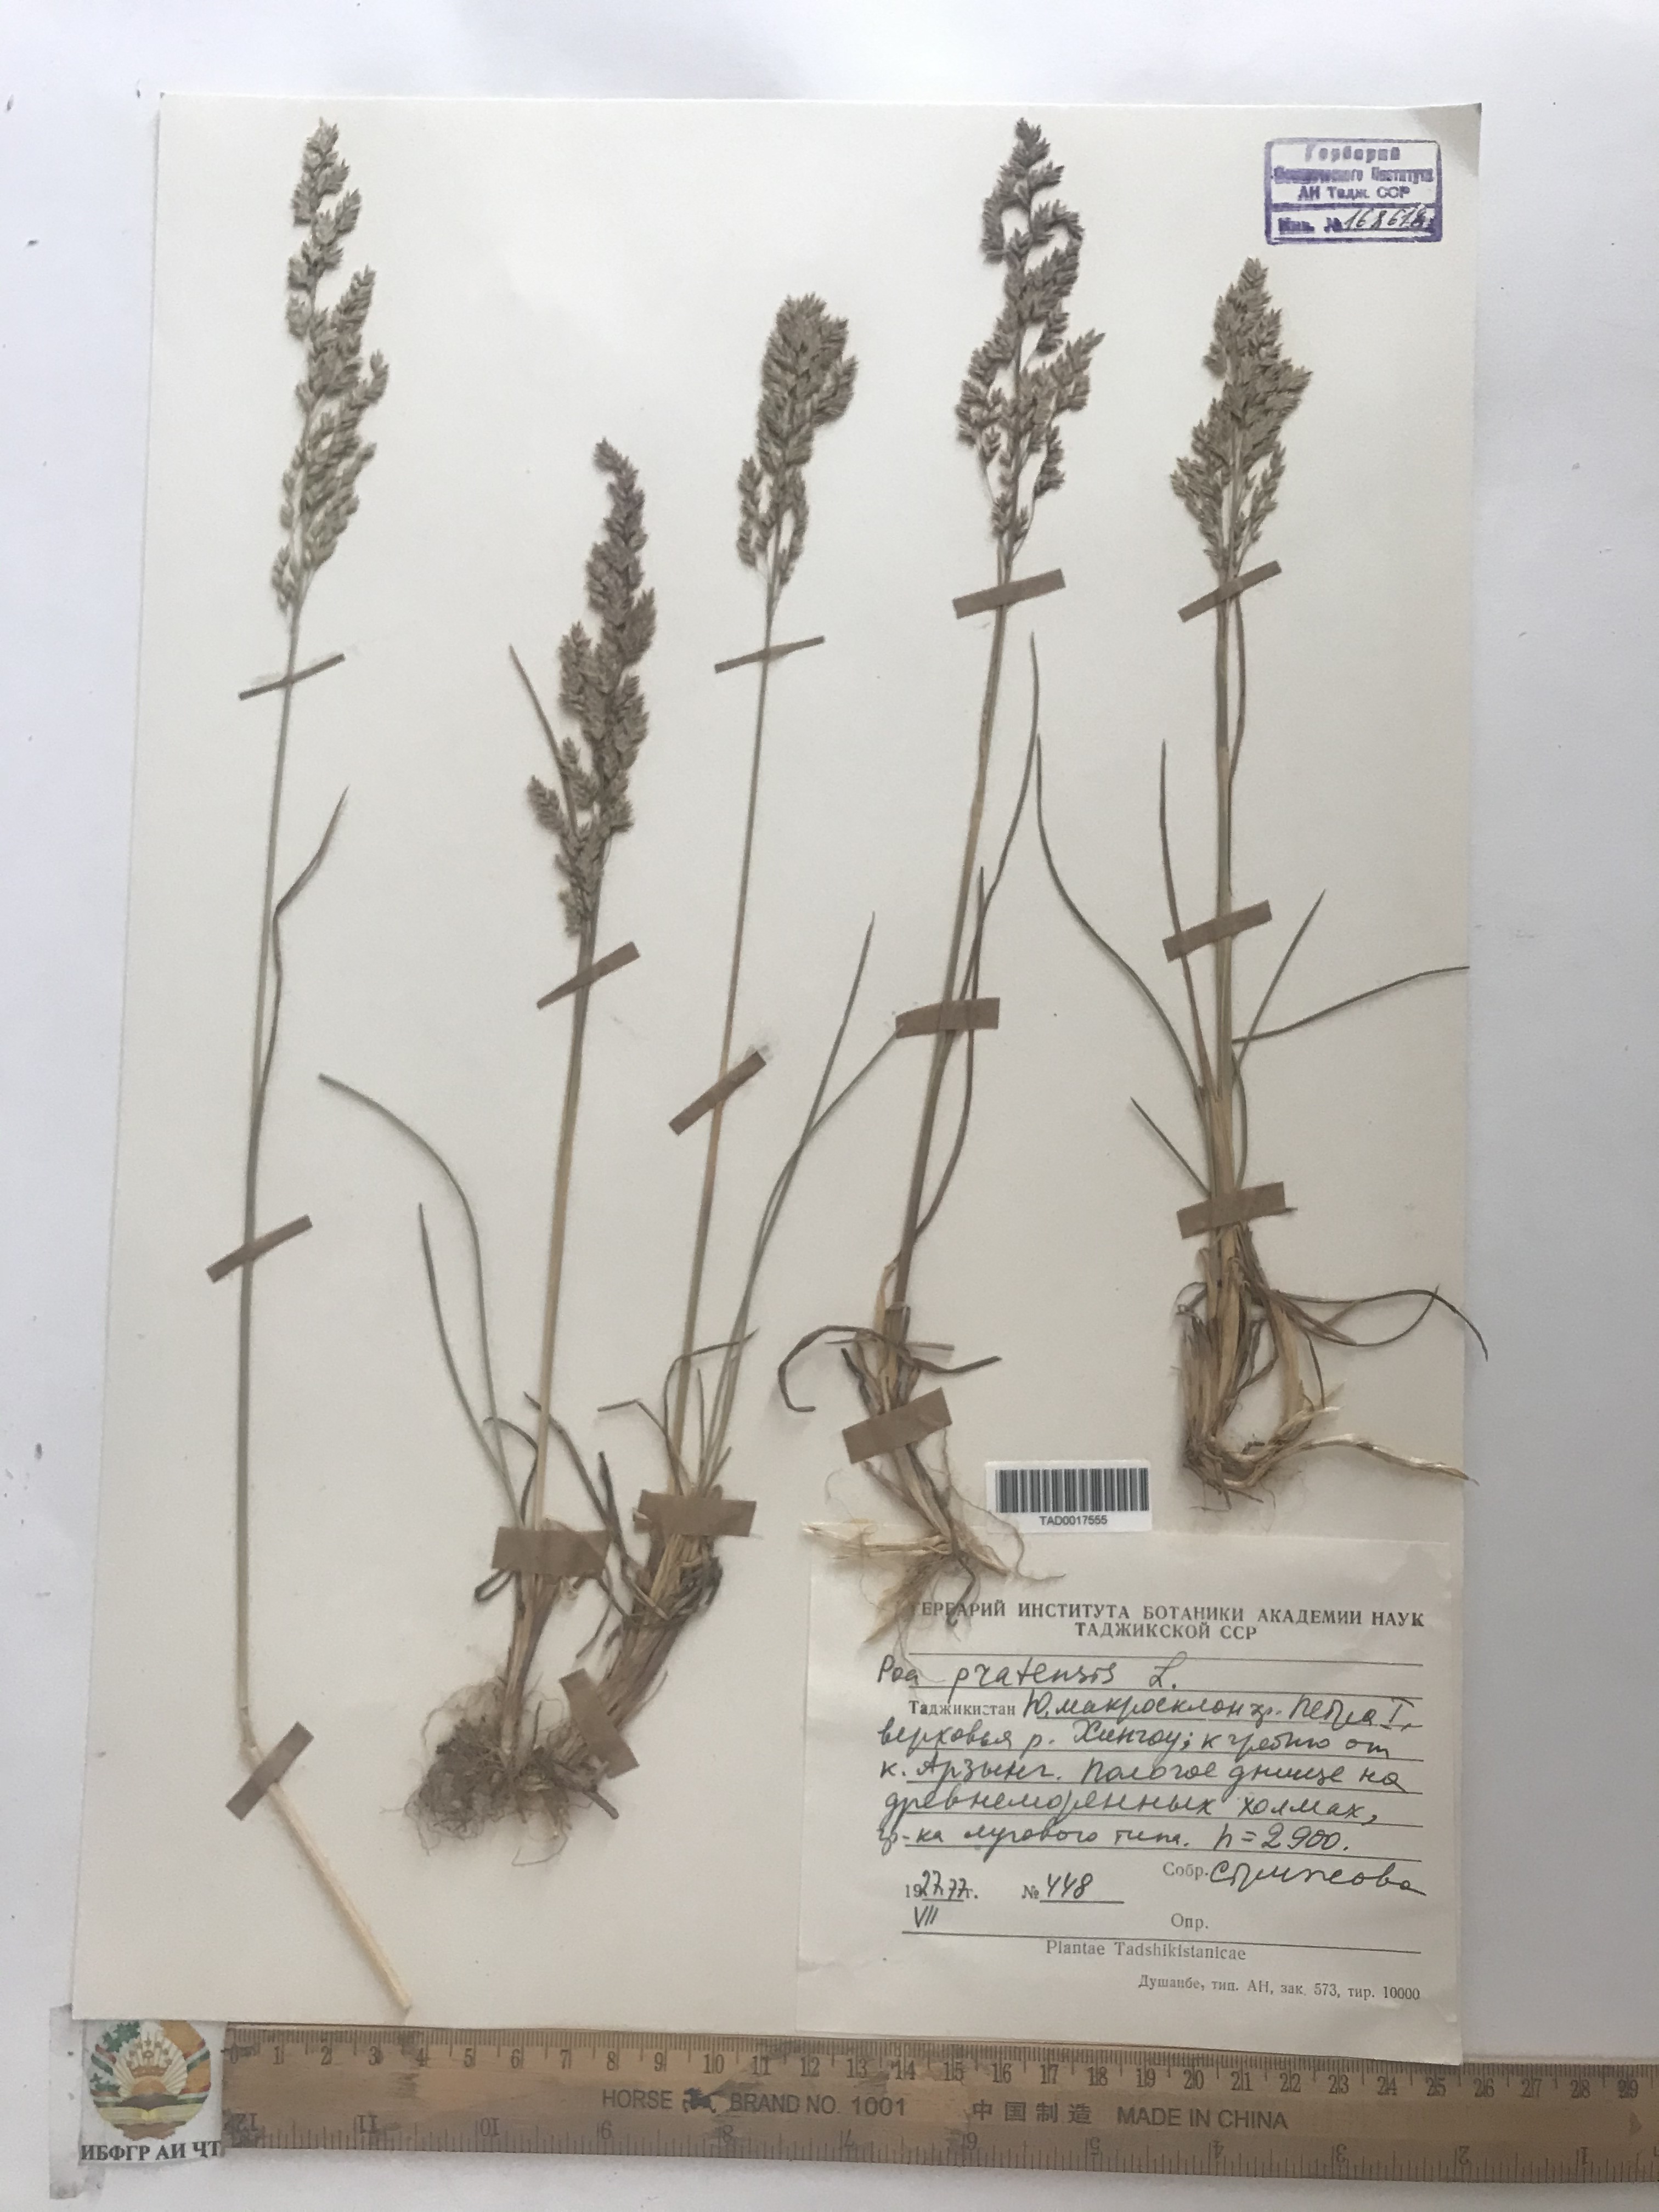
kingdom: Plantae
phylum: Tracheophyta
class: Liliopsida
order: Poales
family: Poaceae
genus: Poa
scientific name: Poa pratensis
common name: Kentucky bluegrass
